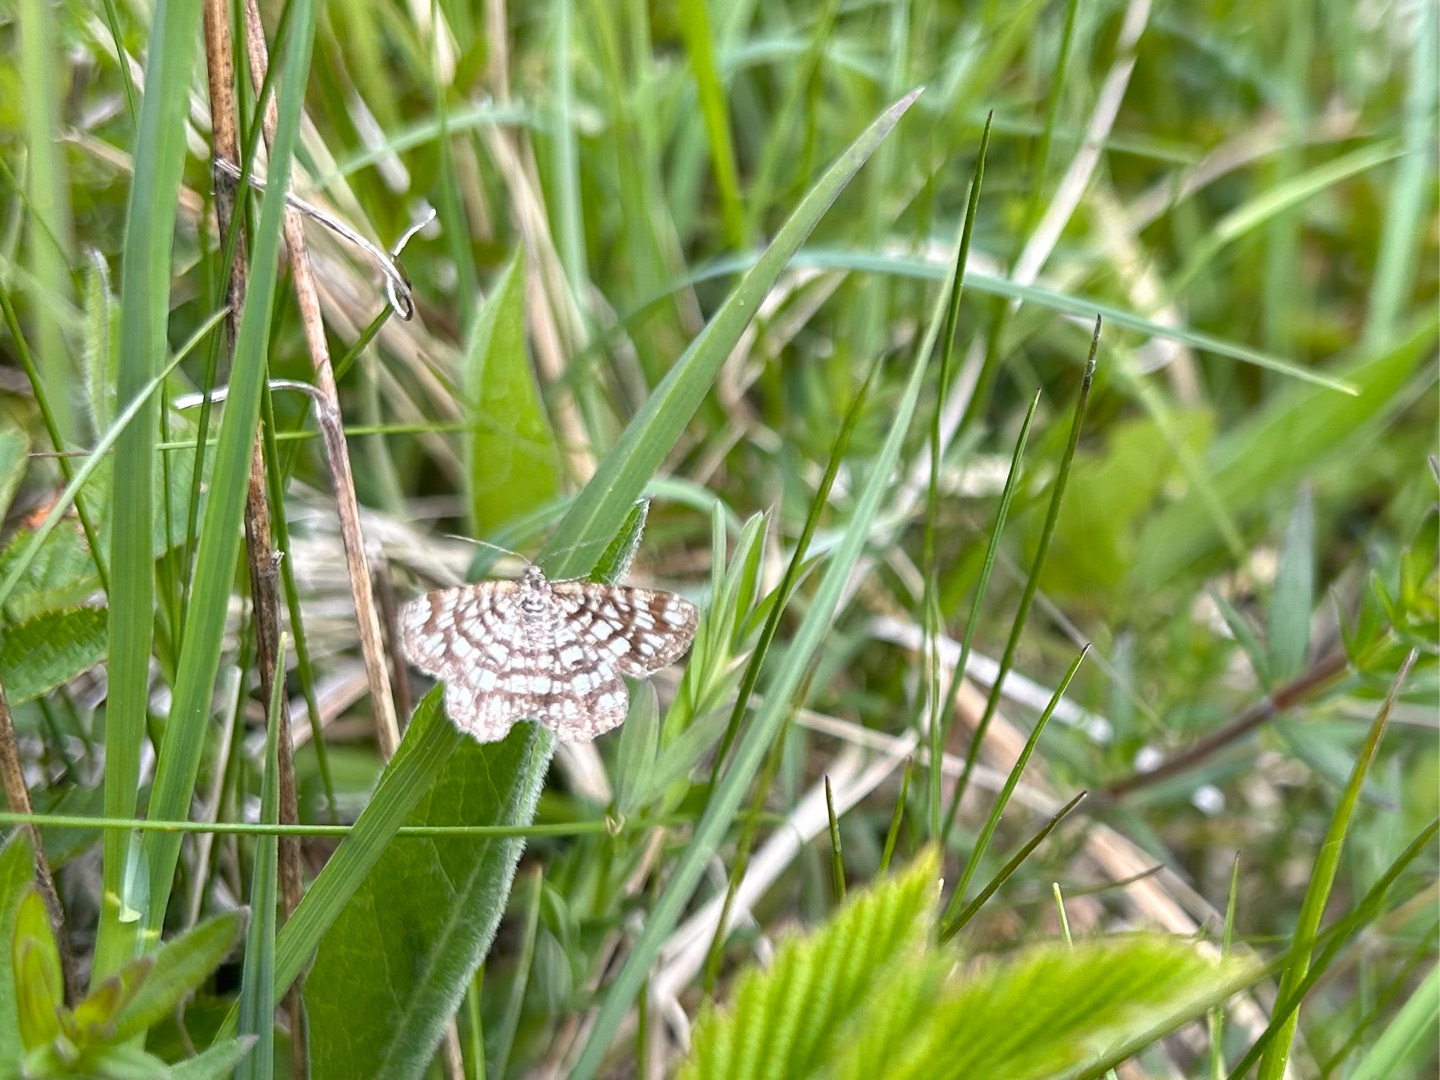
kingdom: Animalia
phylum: Arthropoda
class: Insecta
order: Lepidoptera
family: Geometridae
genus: Chiasmia
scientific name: Chiasmia clathrata
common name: Kløvermåler
